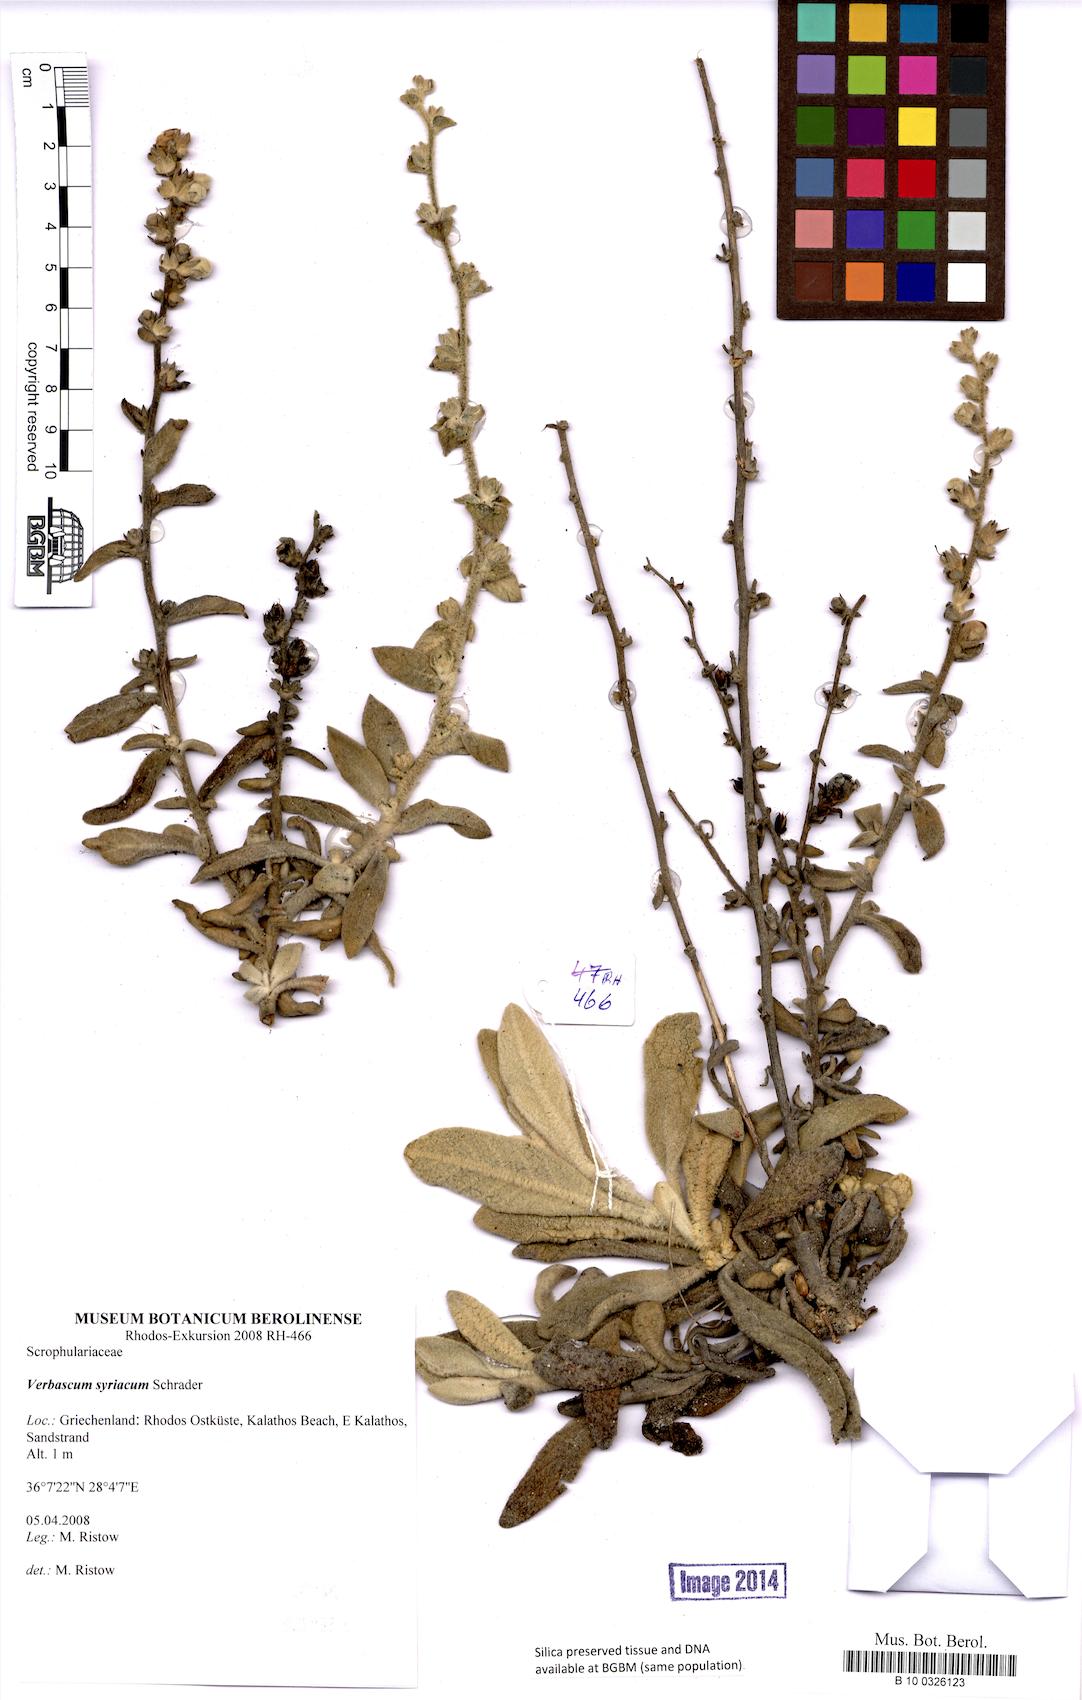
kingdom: Plantae
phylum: Tracheophyta
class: Magnoliopsida
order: Lamiales
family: Scrophulariaceae
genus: Verbascum
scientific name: Verbascum syriacum
